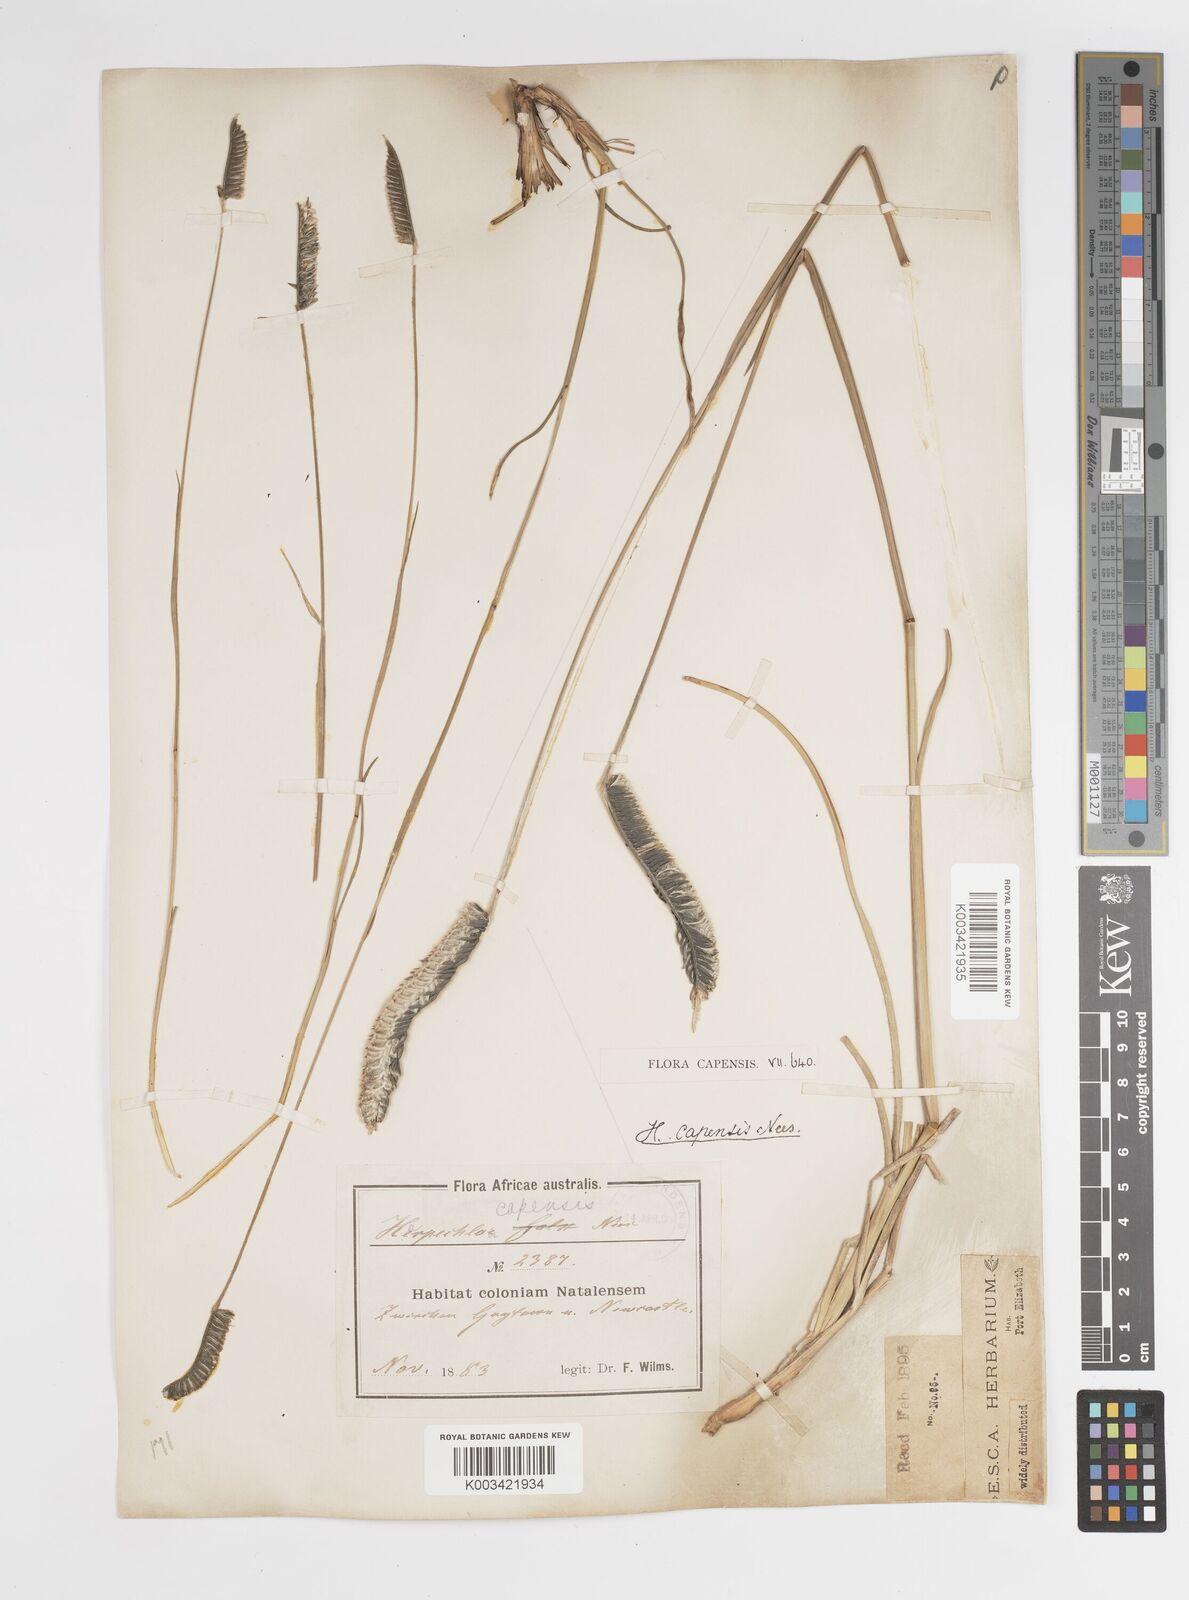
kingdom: Plantae
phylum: Tracheophyta
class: Liliopsida
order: Poales
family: Poaceae
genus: Harpochloa
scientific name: Harpochloa falx
